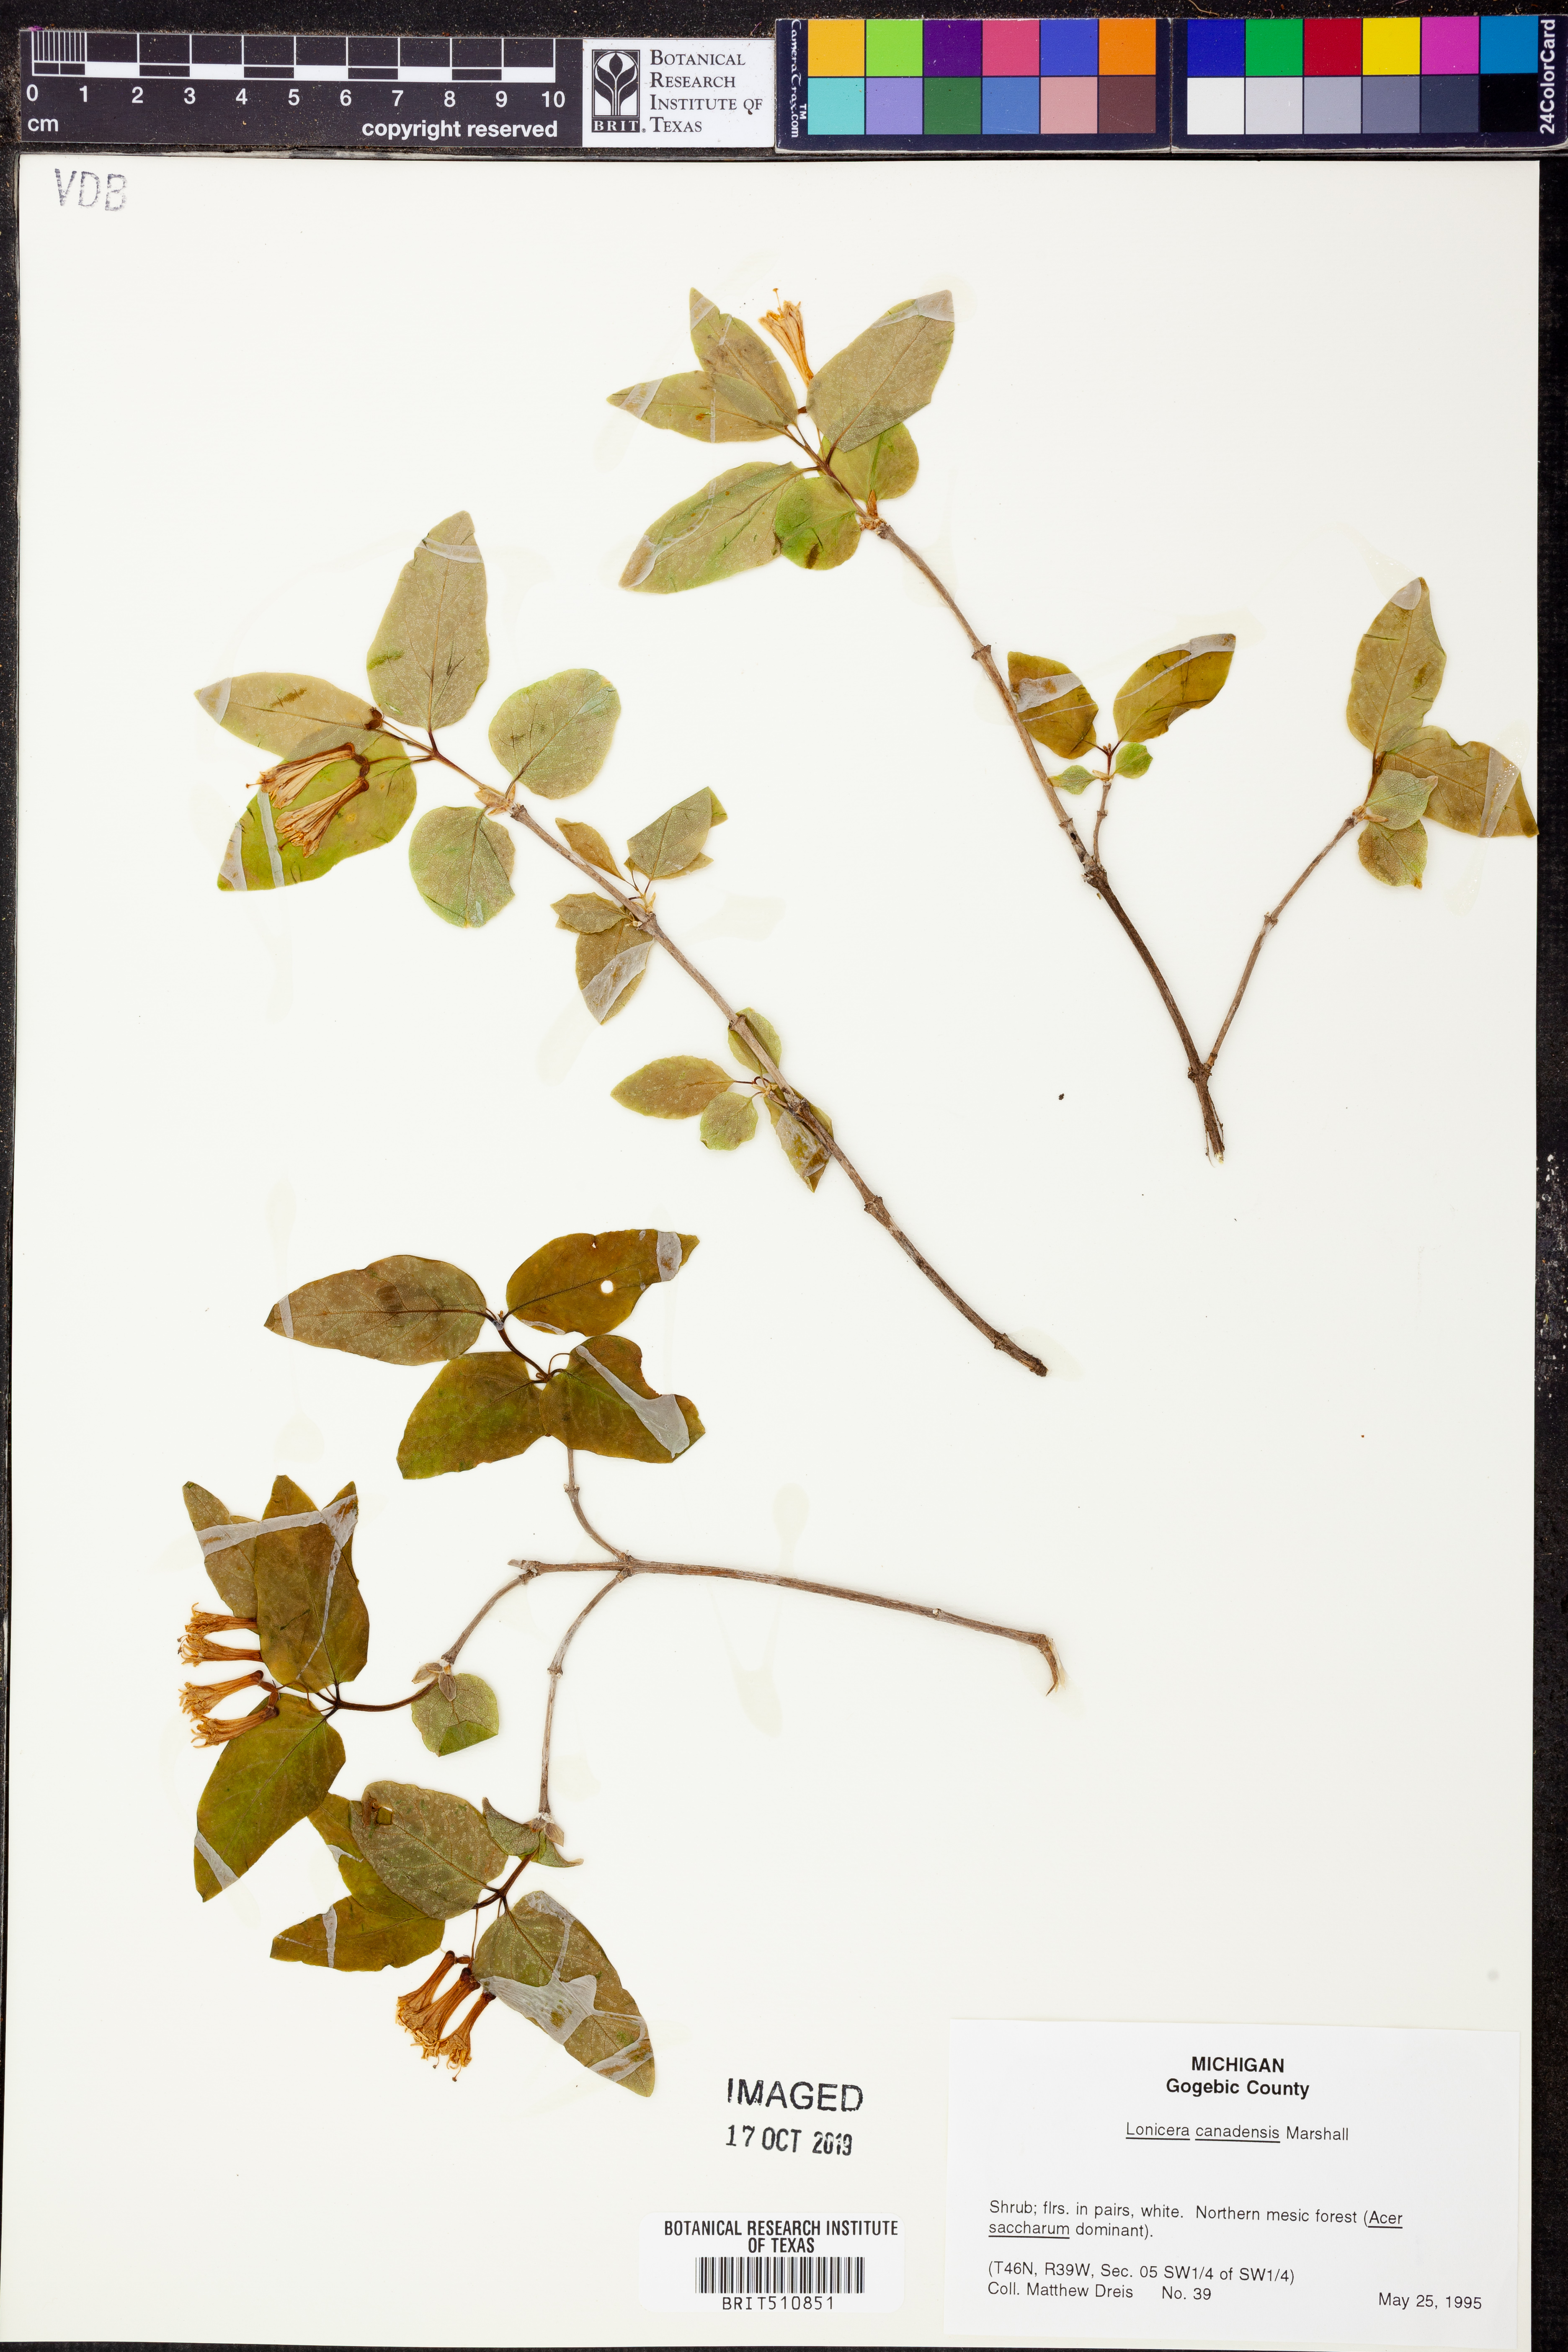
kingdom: Plantae
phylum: Tracheophyta
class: Magnoliopsida
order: Dipsacales
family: Caprifoliaceae
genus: Lonicera
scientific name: Lonicera canadensis
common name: American fly-honeysuckle
